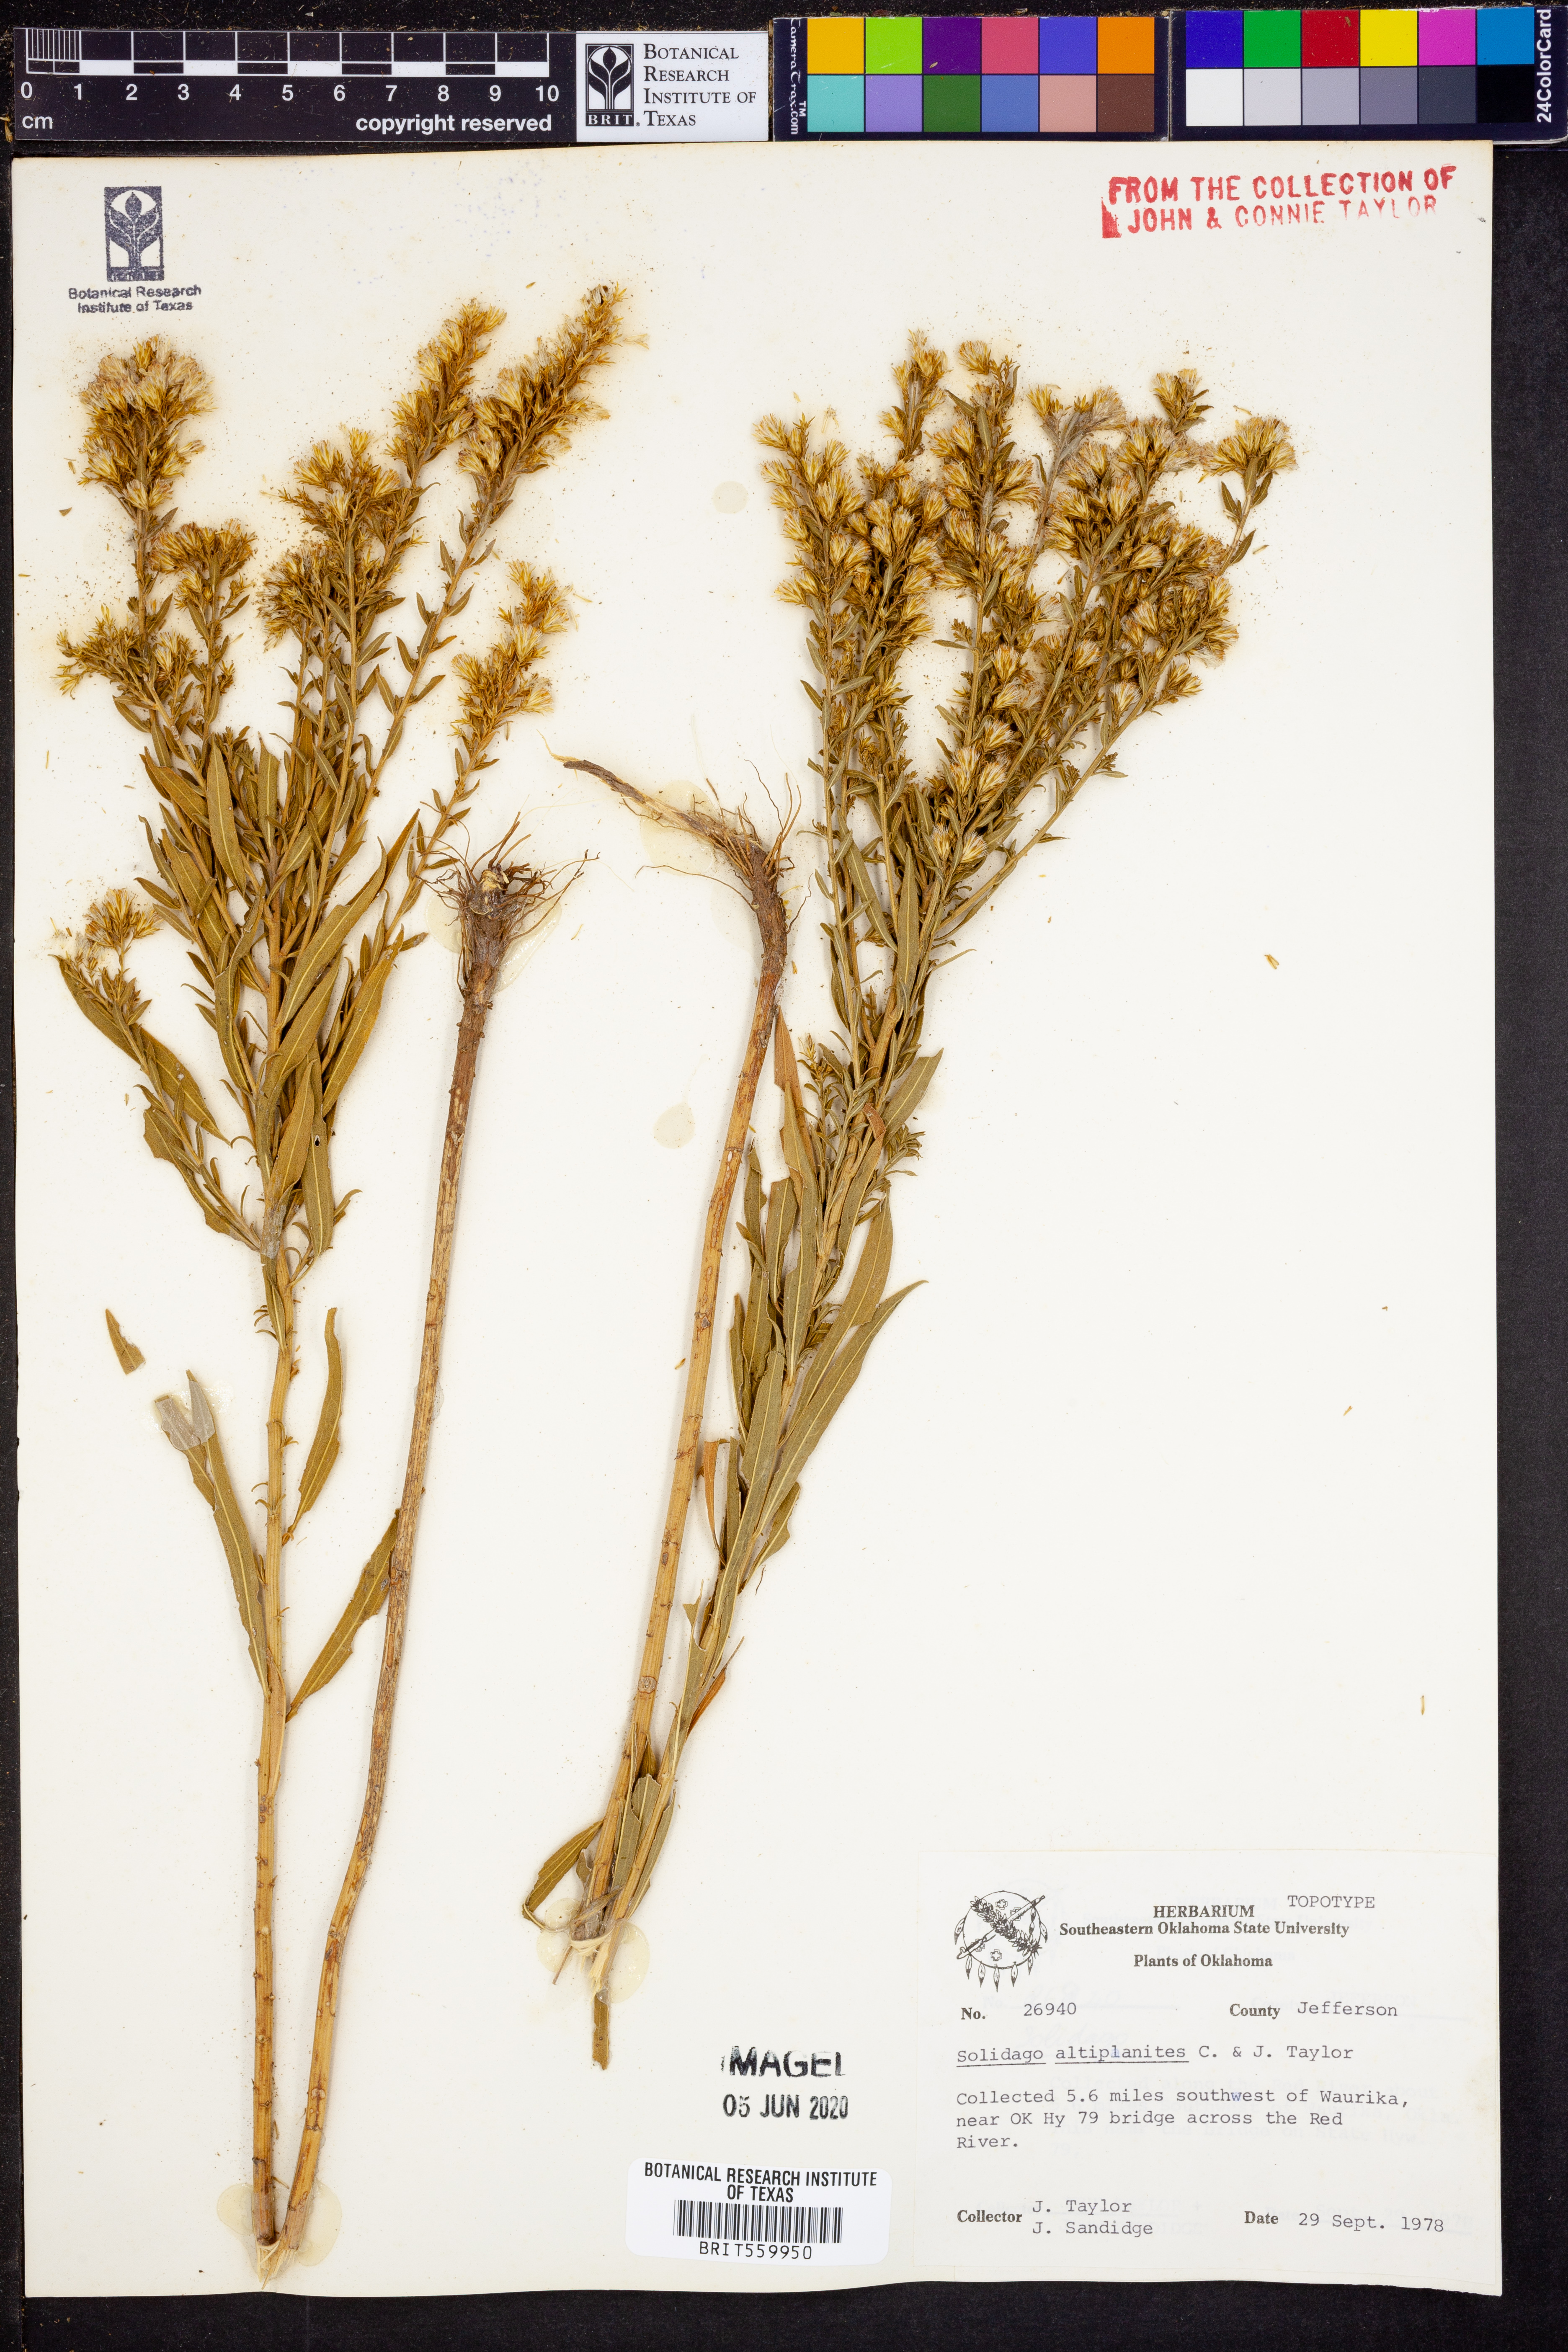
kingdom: Plantae
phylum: Tracheophyta
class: Magnoliopsida
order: Asterales
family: Asteraceae
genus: Solidago
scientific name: Solidago altiplanities
